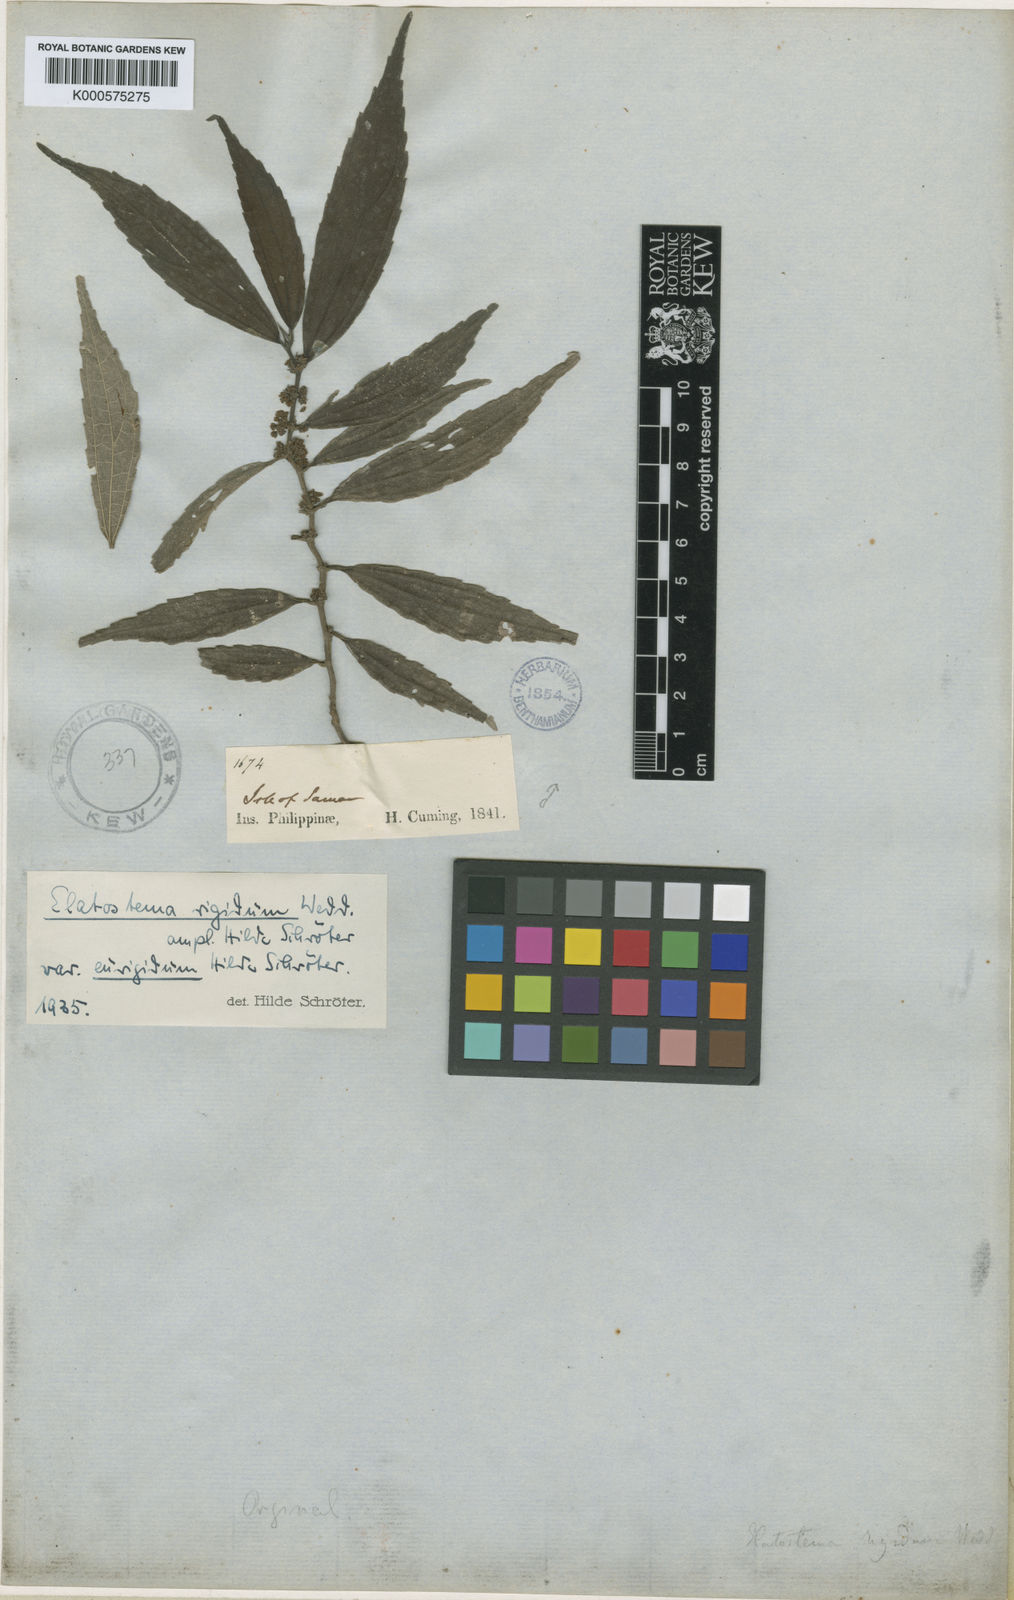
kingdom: Plantae
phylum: Tracheophyta
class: Magnoliopsida
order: Rosales
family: Urticaceae
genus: Elatostematoides
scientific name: Elatostematoides rigidum
